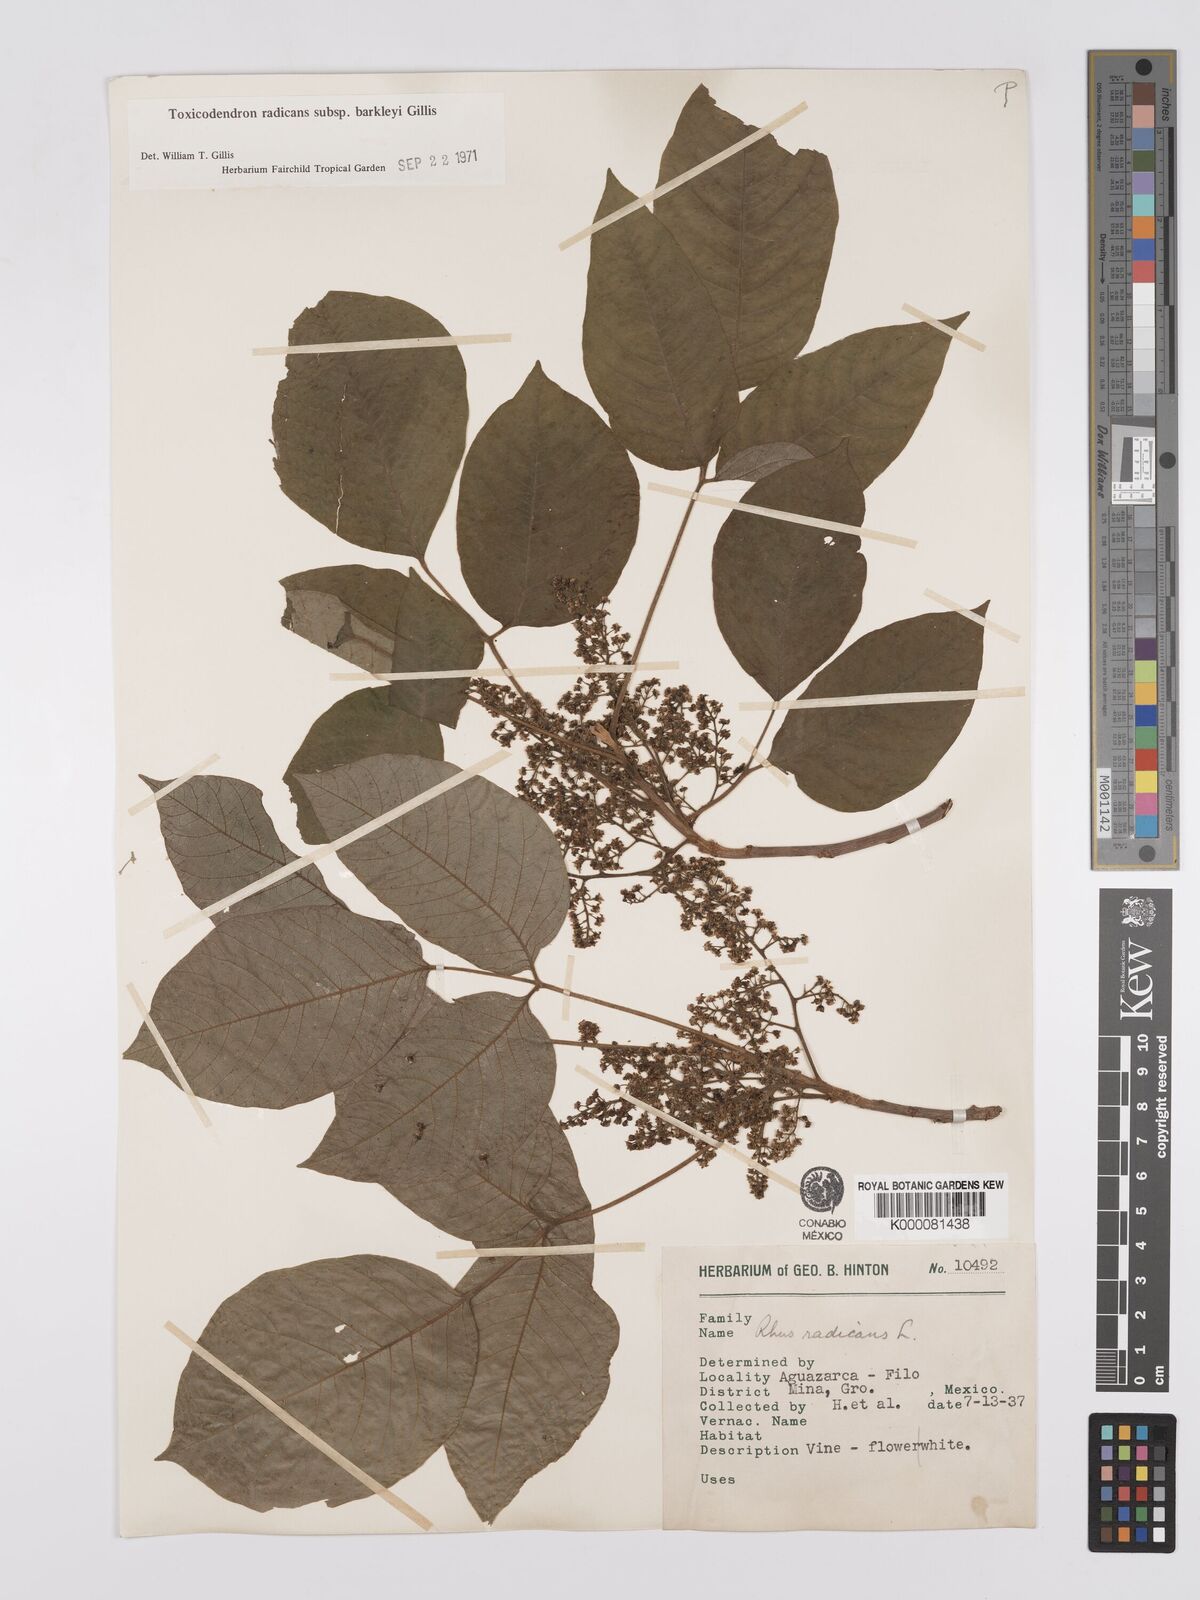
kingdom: Plantae
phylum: Tracheophyta
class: Magnoliopsida
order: Sapindales
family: Anacardiaceae
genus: Toxicodendron
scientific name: Toxicodendron radicans
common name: Poison ivy
